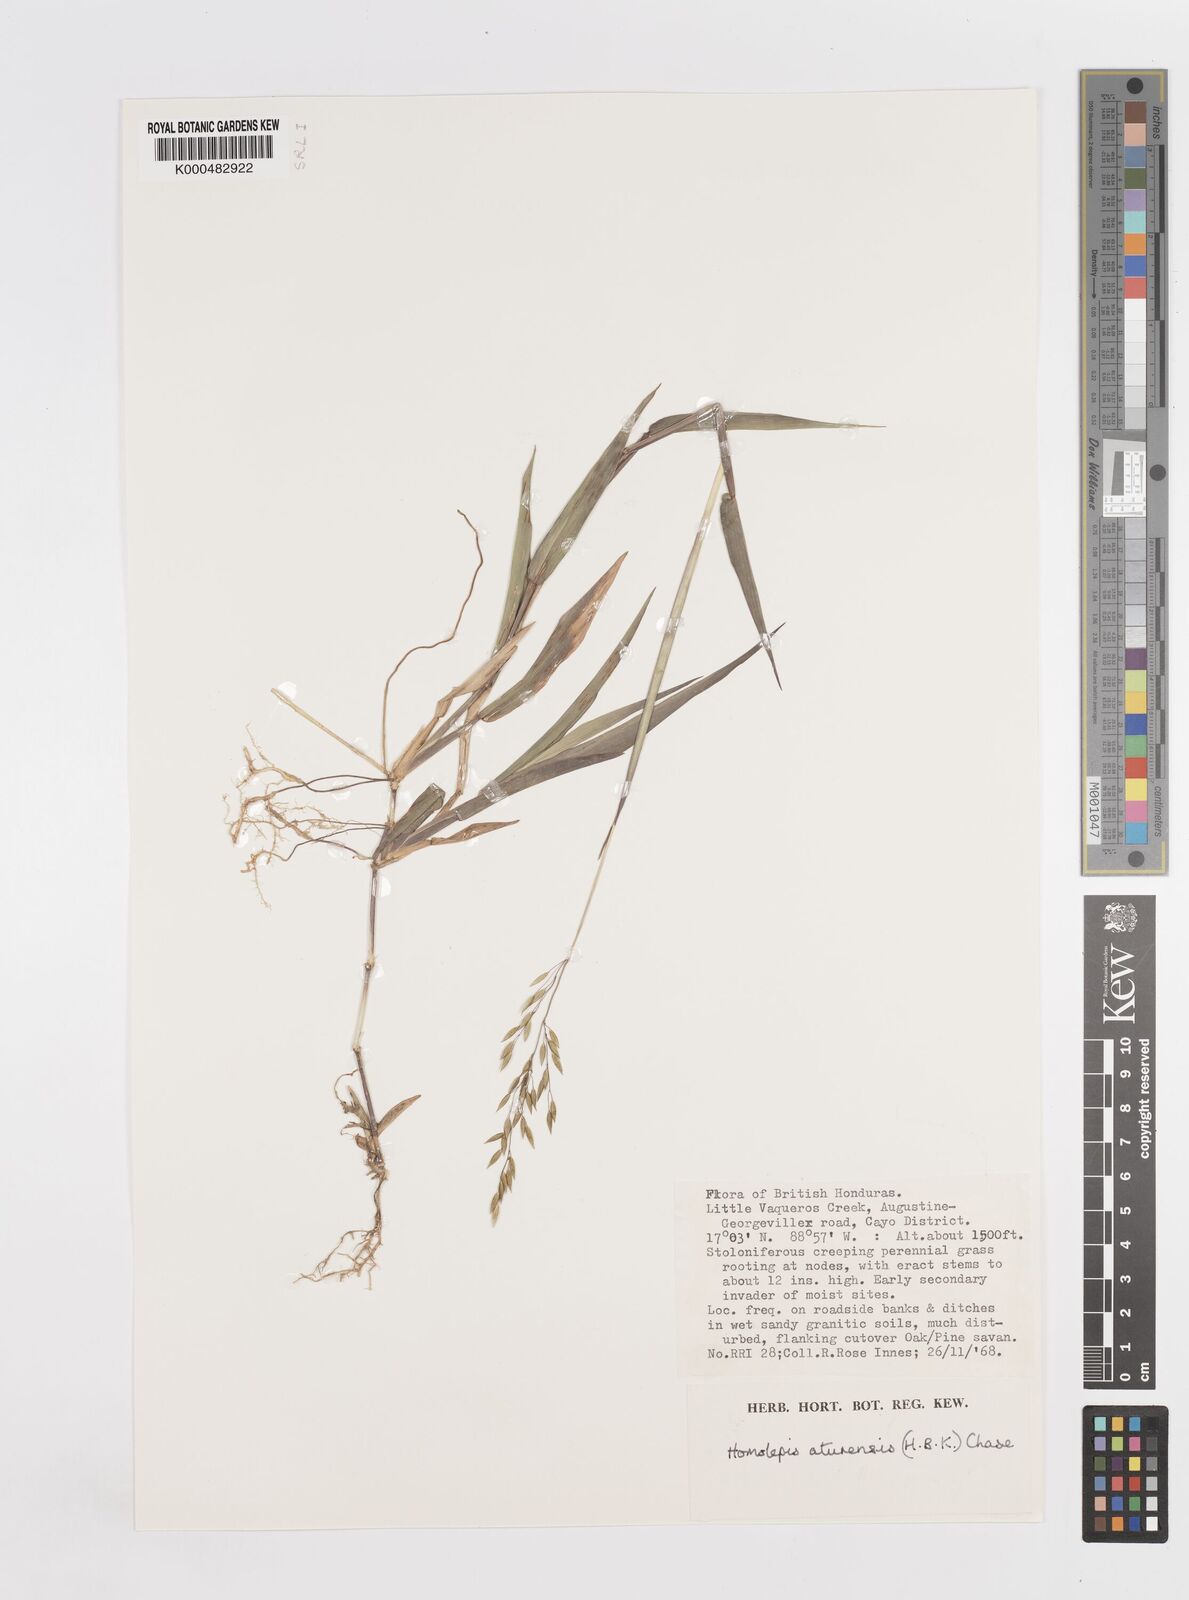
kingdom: Plantae
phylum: Tracheophyta
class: Liliopsida
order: Poales
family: Poaceae
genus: Homolepis
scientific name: Homolepis aturensis
